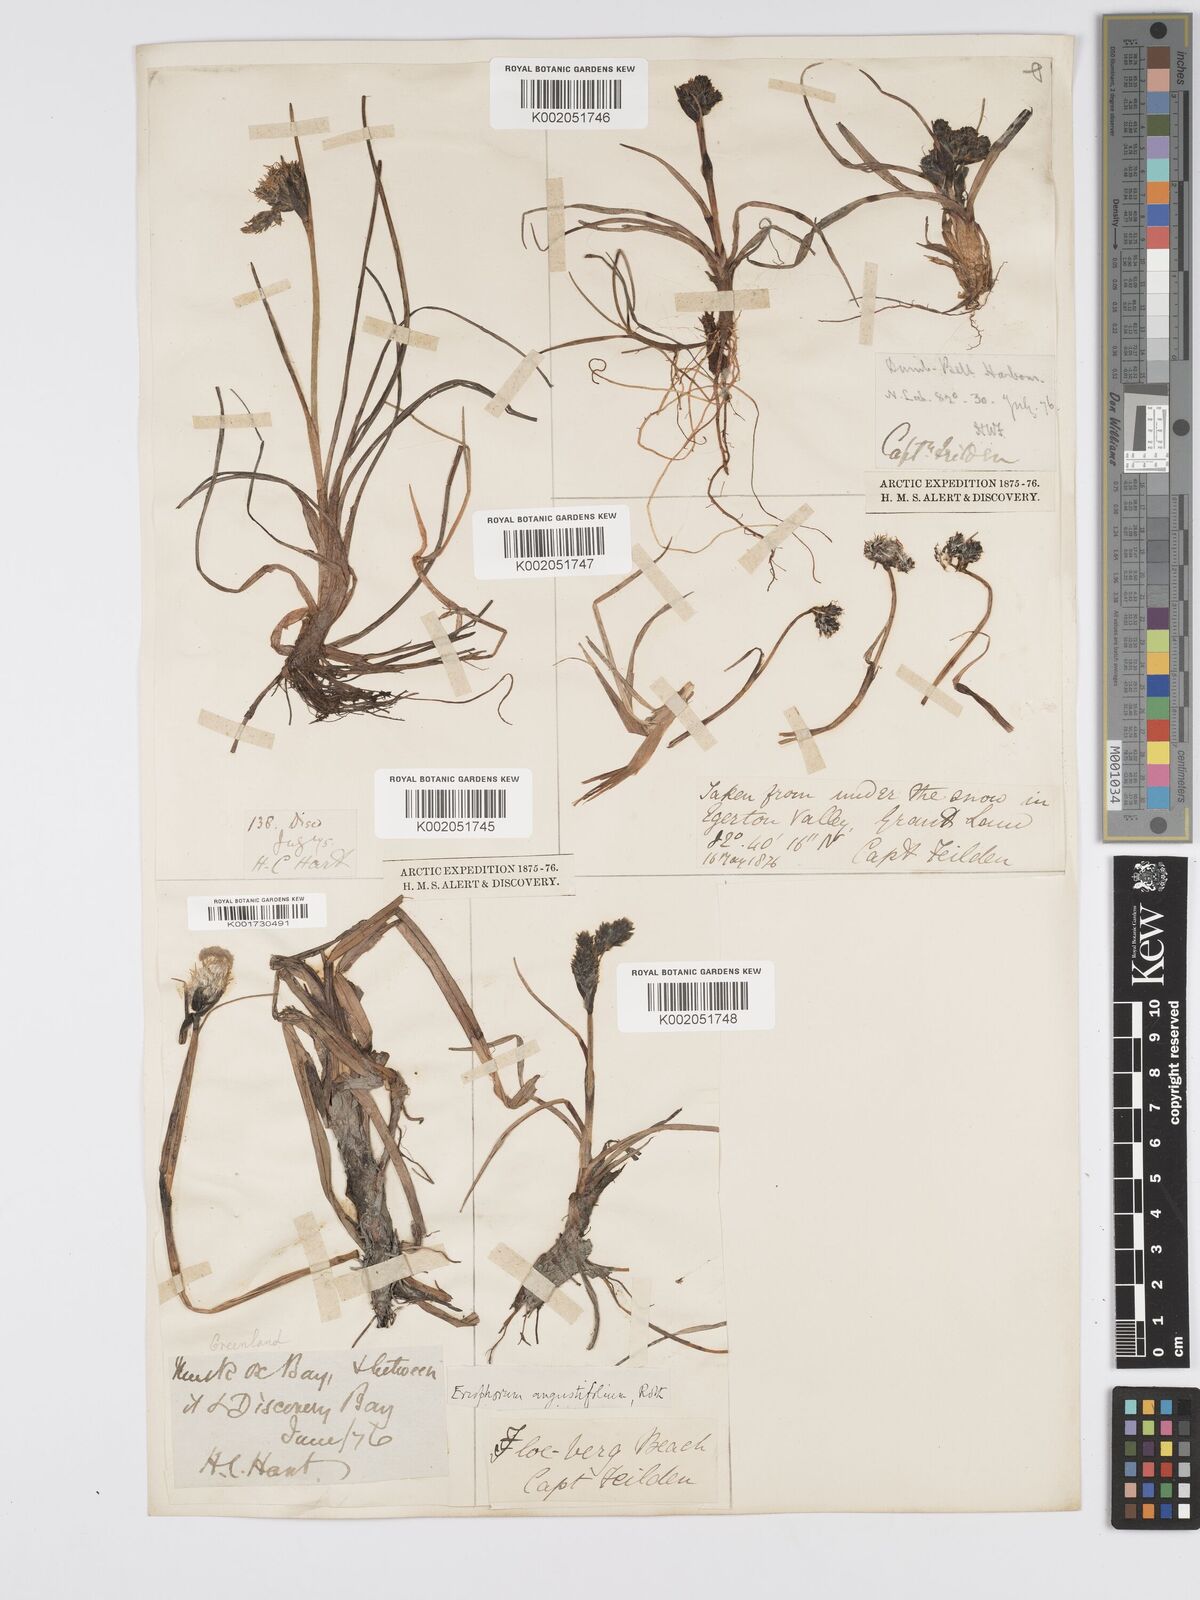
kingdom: Plantae
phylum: Tracheophyta
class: Liliopsida
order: Poales
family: Cyperaceae
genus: Eriophorum
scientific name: Eriophorum angustifolium
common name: Common cottongrass
